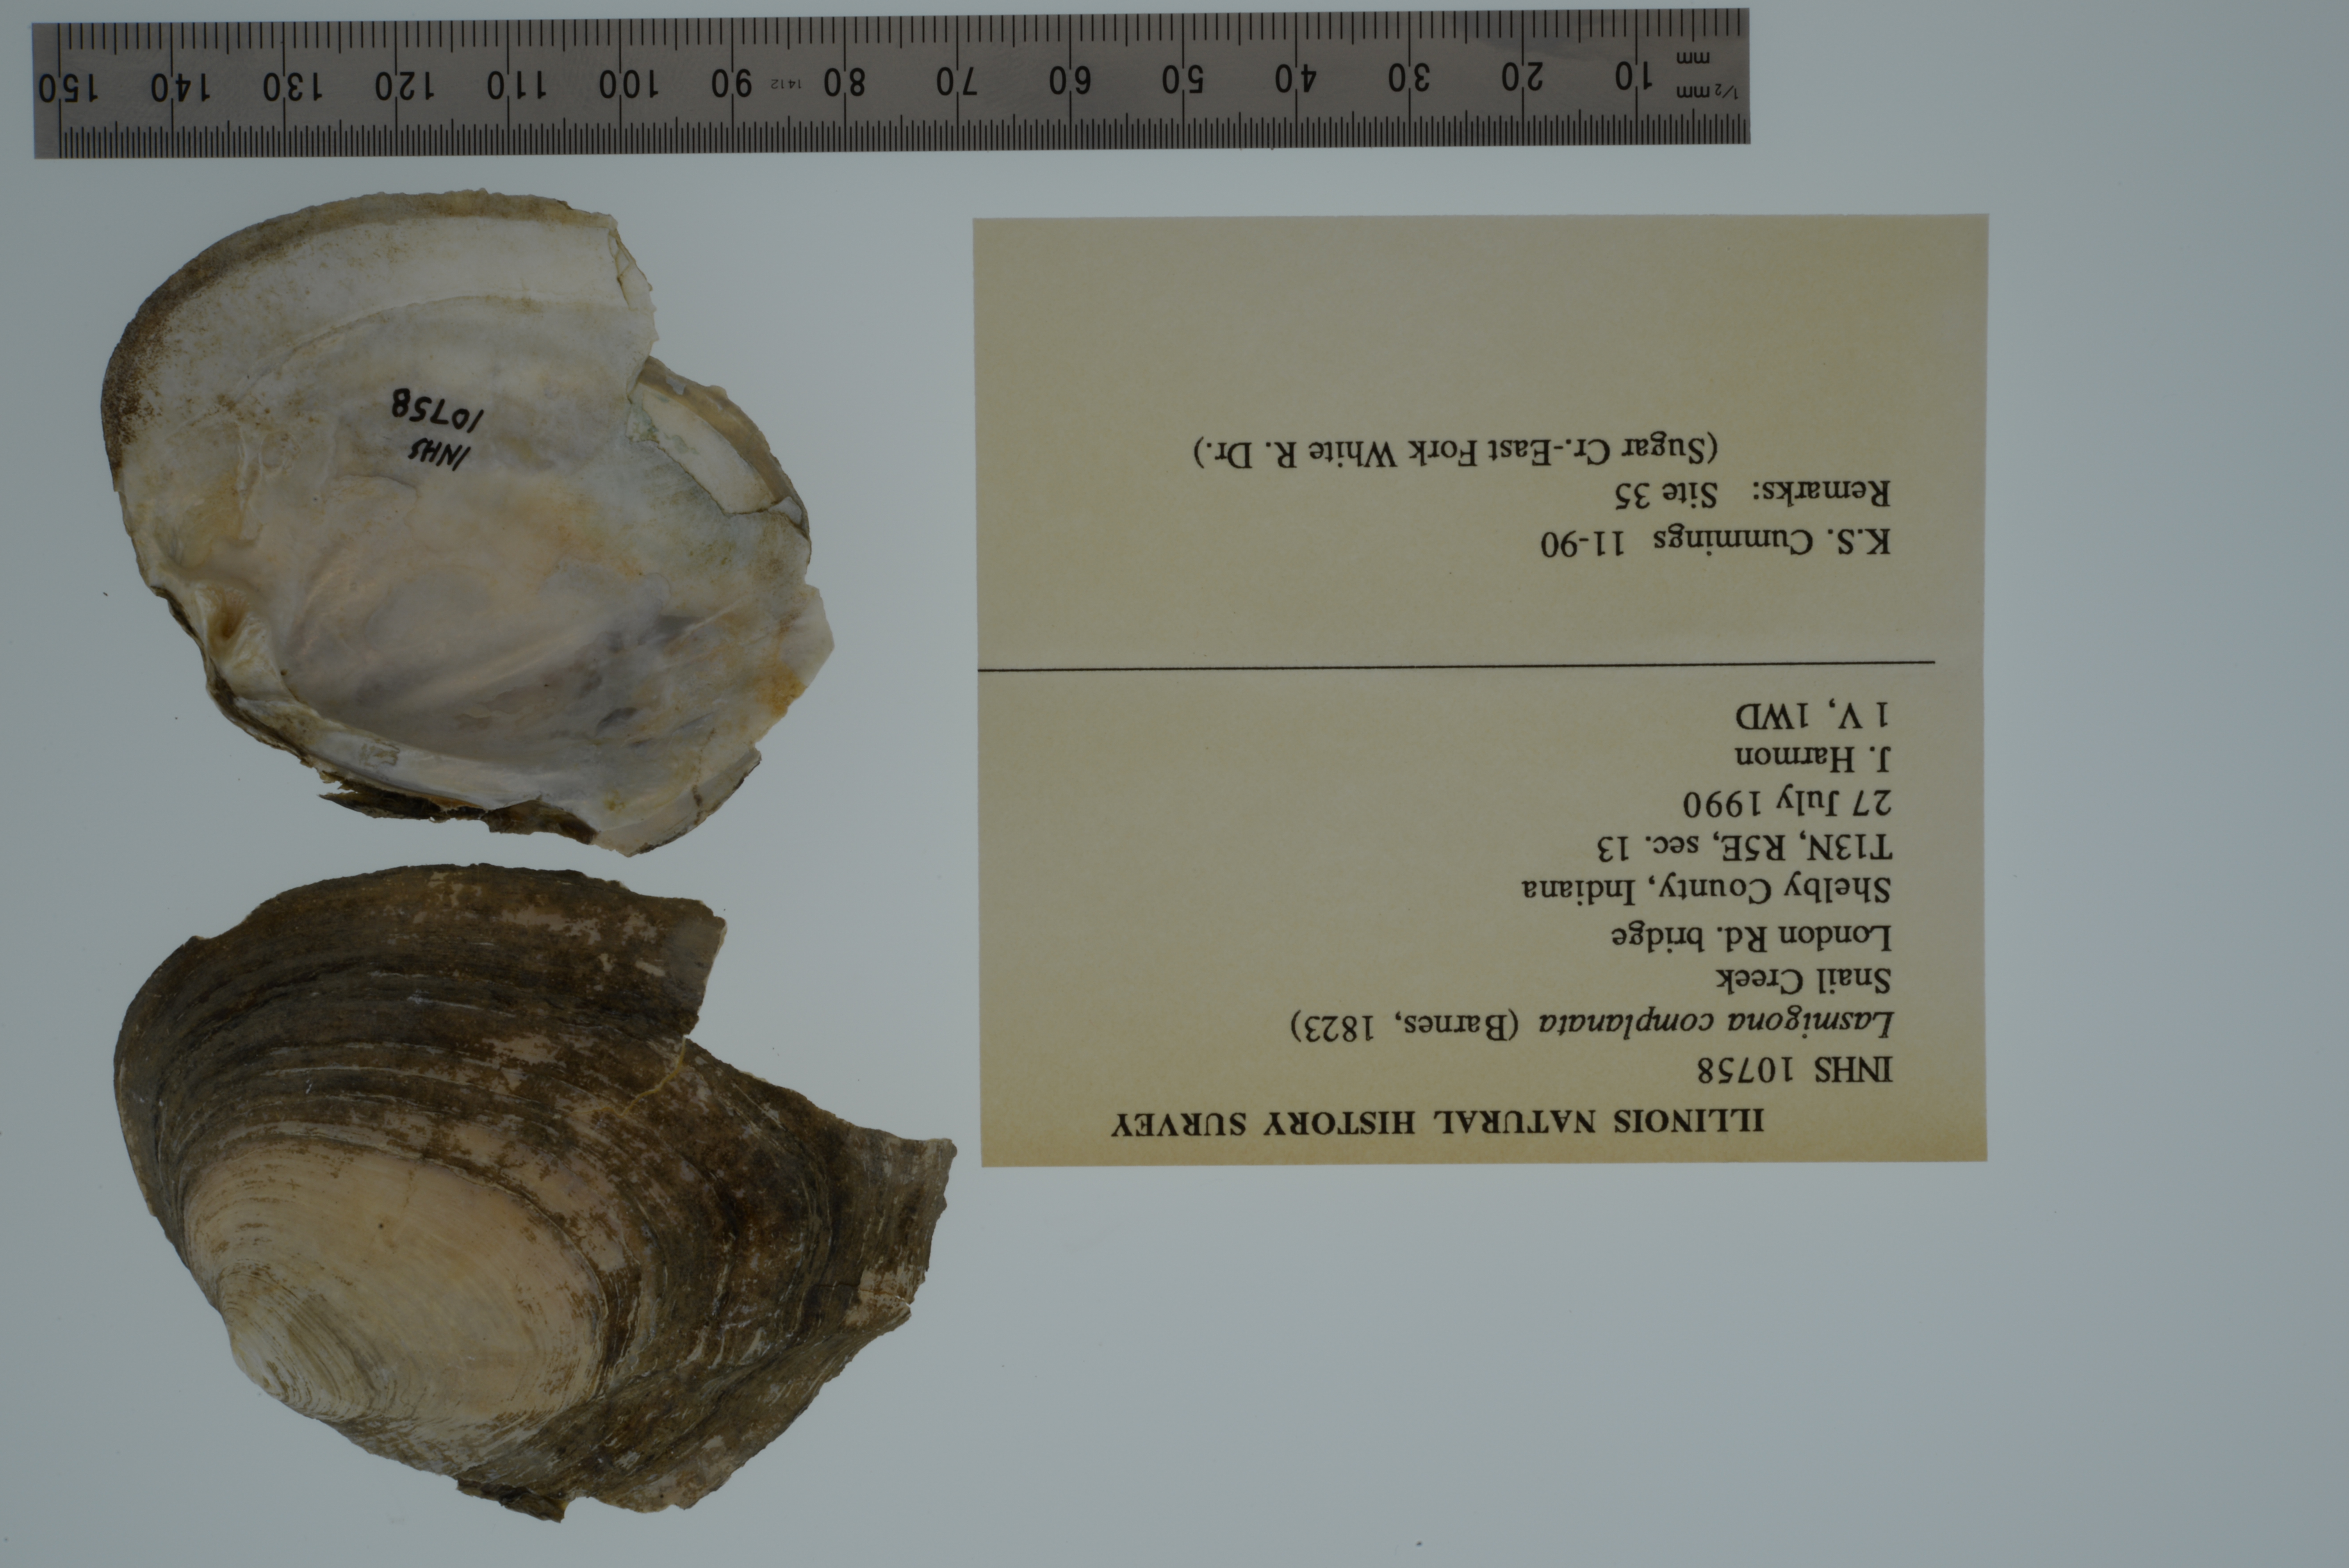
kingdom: Animalia
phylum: Mollusca
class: Bivalvia
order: Unionida
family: Unionidae
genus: Lasmigona
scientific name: Lasmigona complanata
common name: White heelsplitter
